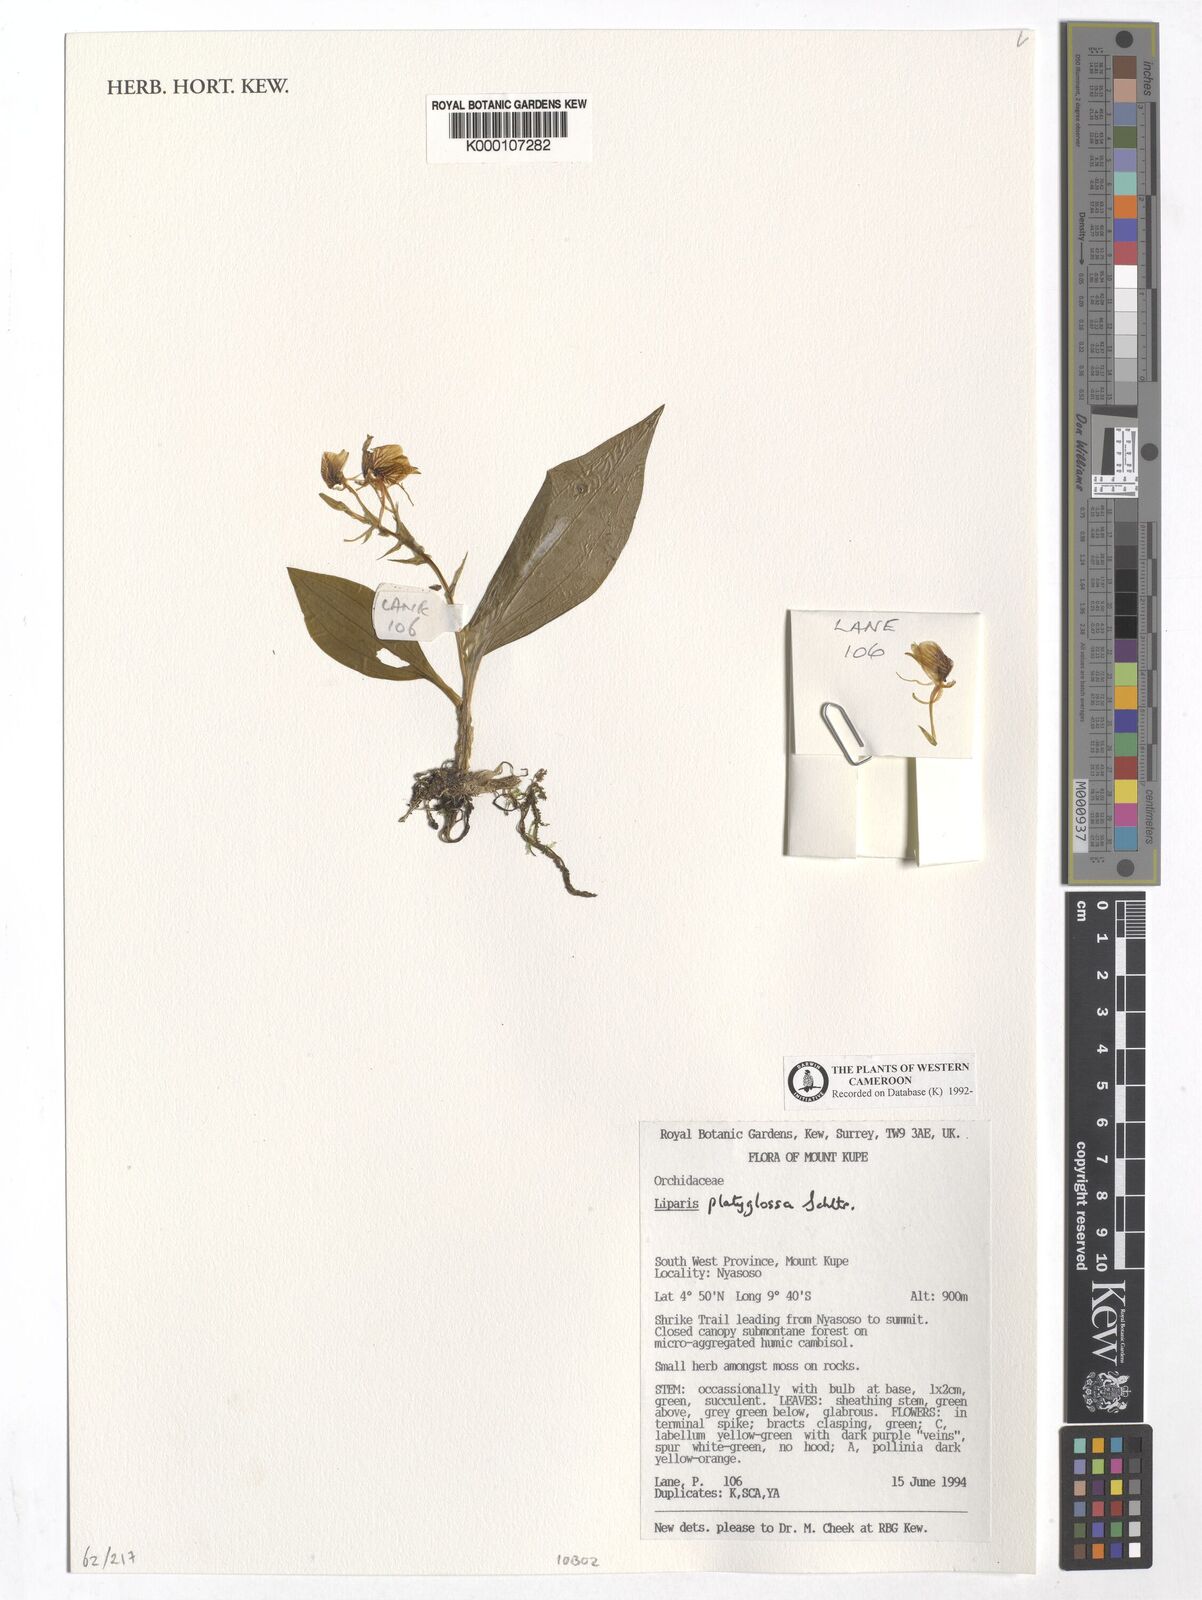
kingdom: Plantae
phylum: Tracheophyta
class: Liliopsida
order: Asparagales
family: Orchidaceae
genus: Liparis
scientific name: Liparis platyglossa
